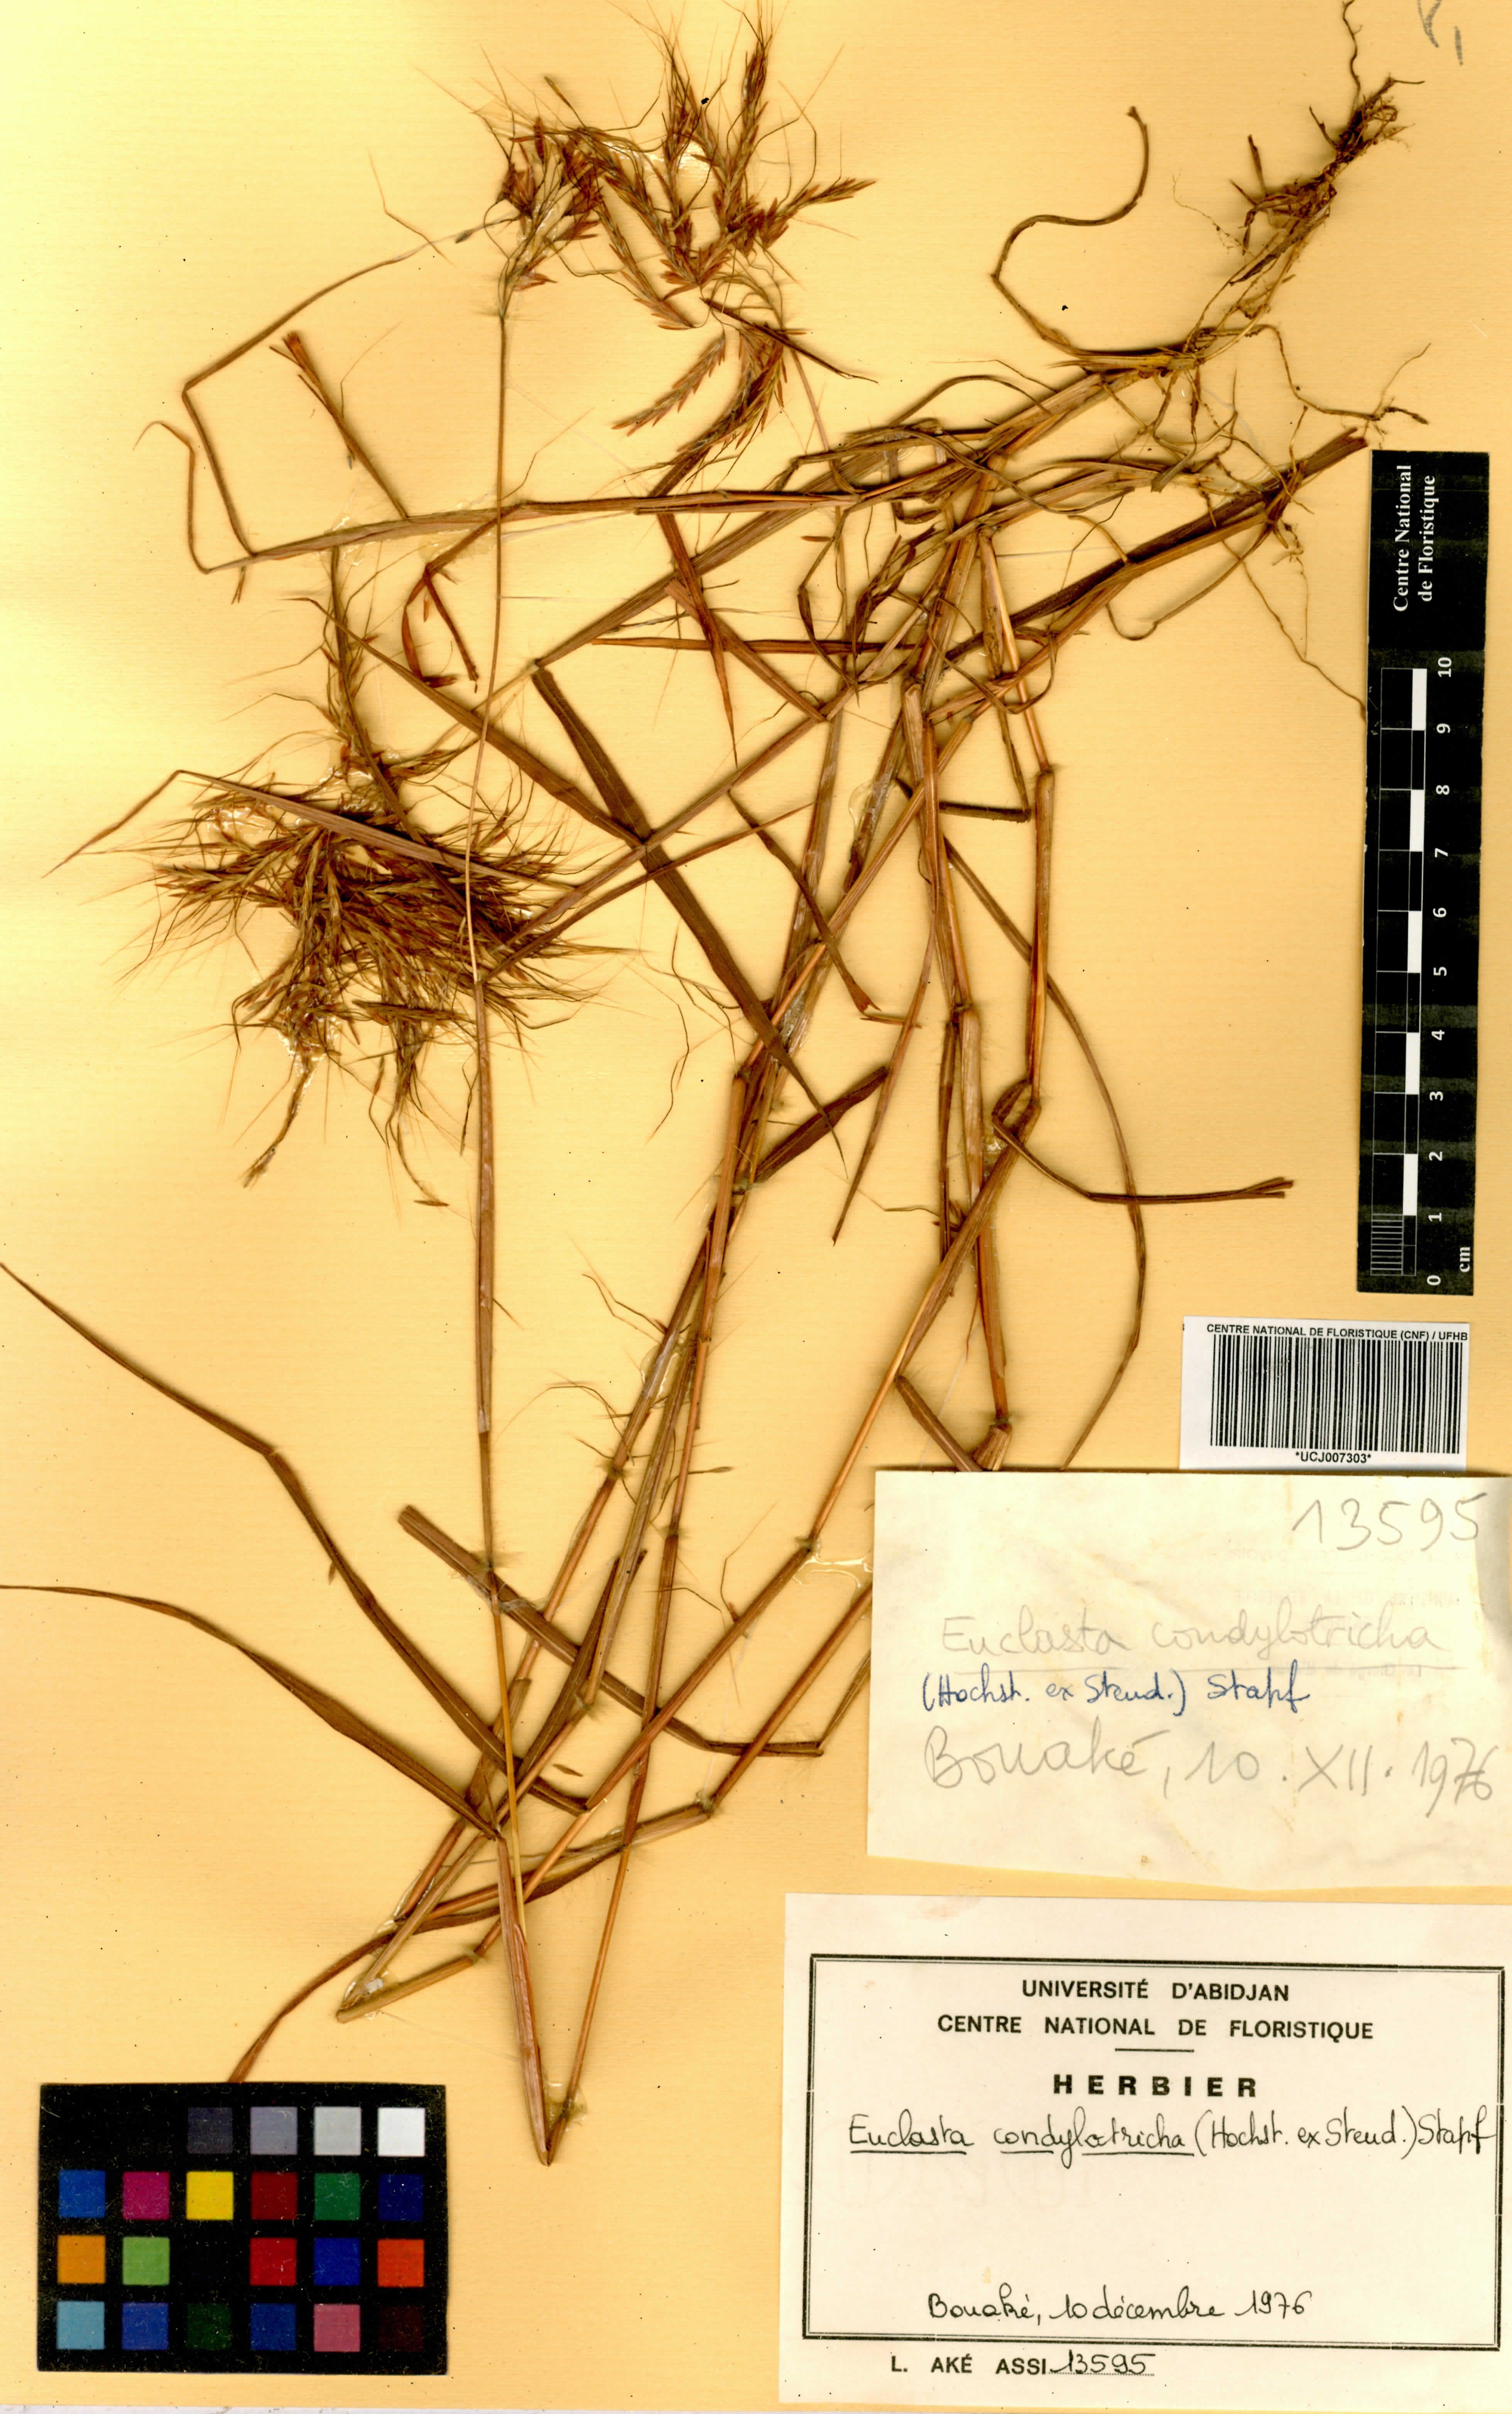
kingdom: Plantae
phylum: Tracheophyta
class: Liliopsida
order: Poales
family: Poaceae
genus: Euclasta
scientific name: Euclasta condylotricha
